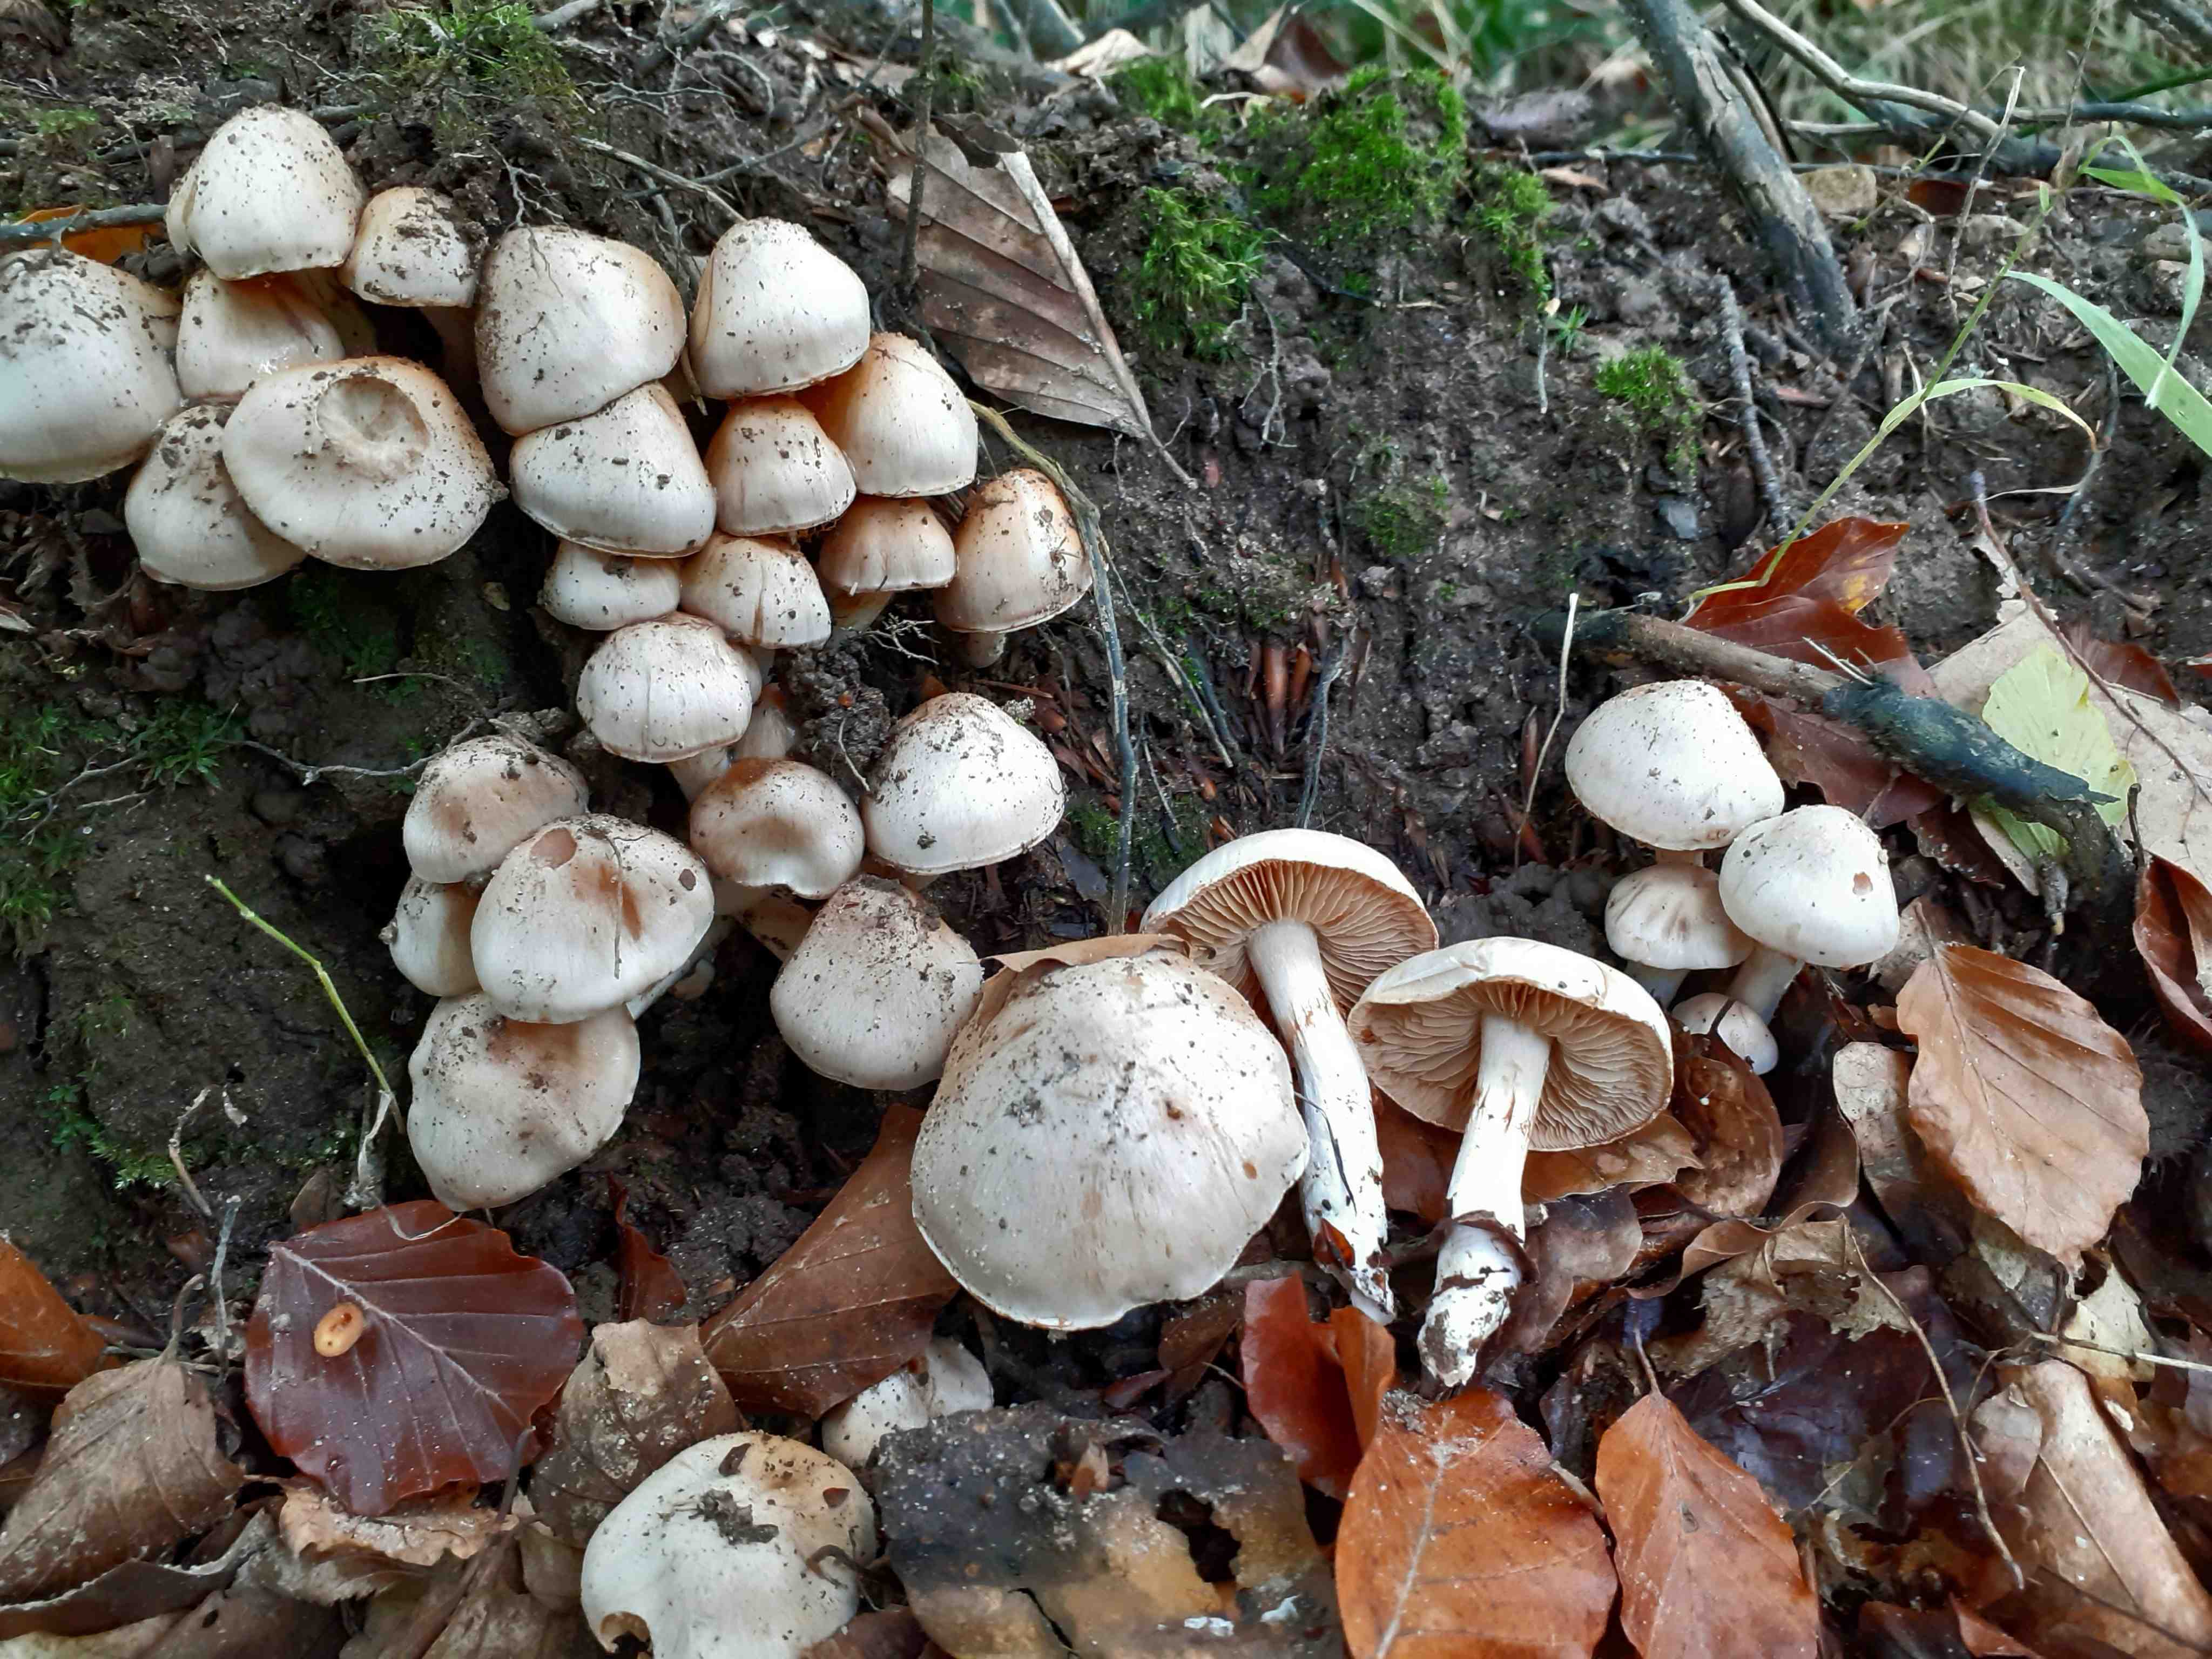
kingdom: Fungi
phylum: Basidiomycota
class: Agaricomycetes
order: Agaricales
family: Cortinariaceae
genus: Thaxterogaster
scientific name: Thaxterogaster barbatus
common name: elfenbens-slørhat
